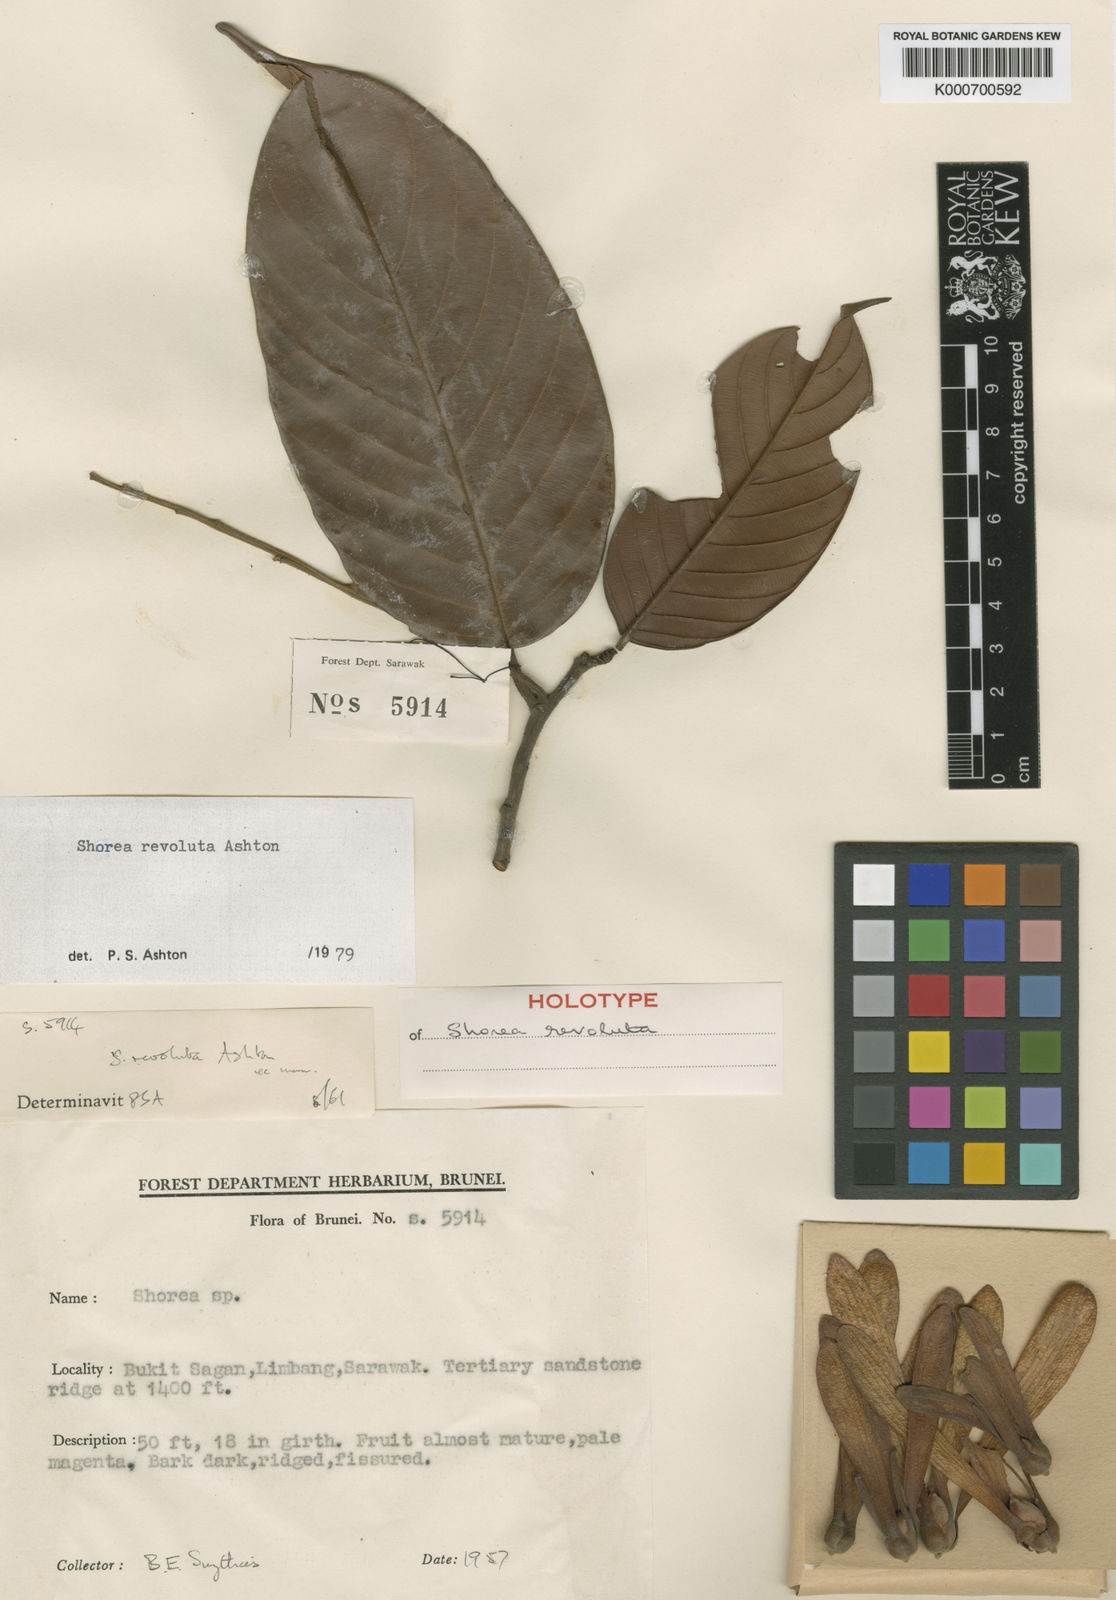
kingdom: Plantae
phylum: Tracheophyta
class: Magnoliopsida
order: Malvales
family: Dipterocarpaceae
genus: Shorea
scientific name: Shorea revoluta
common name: Light red meranti
